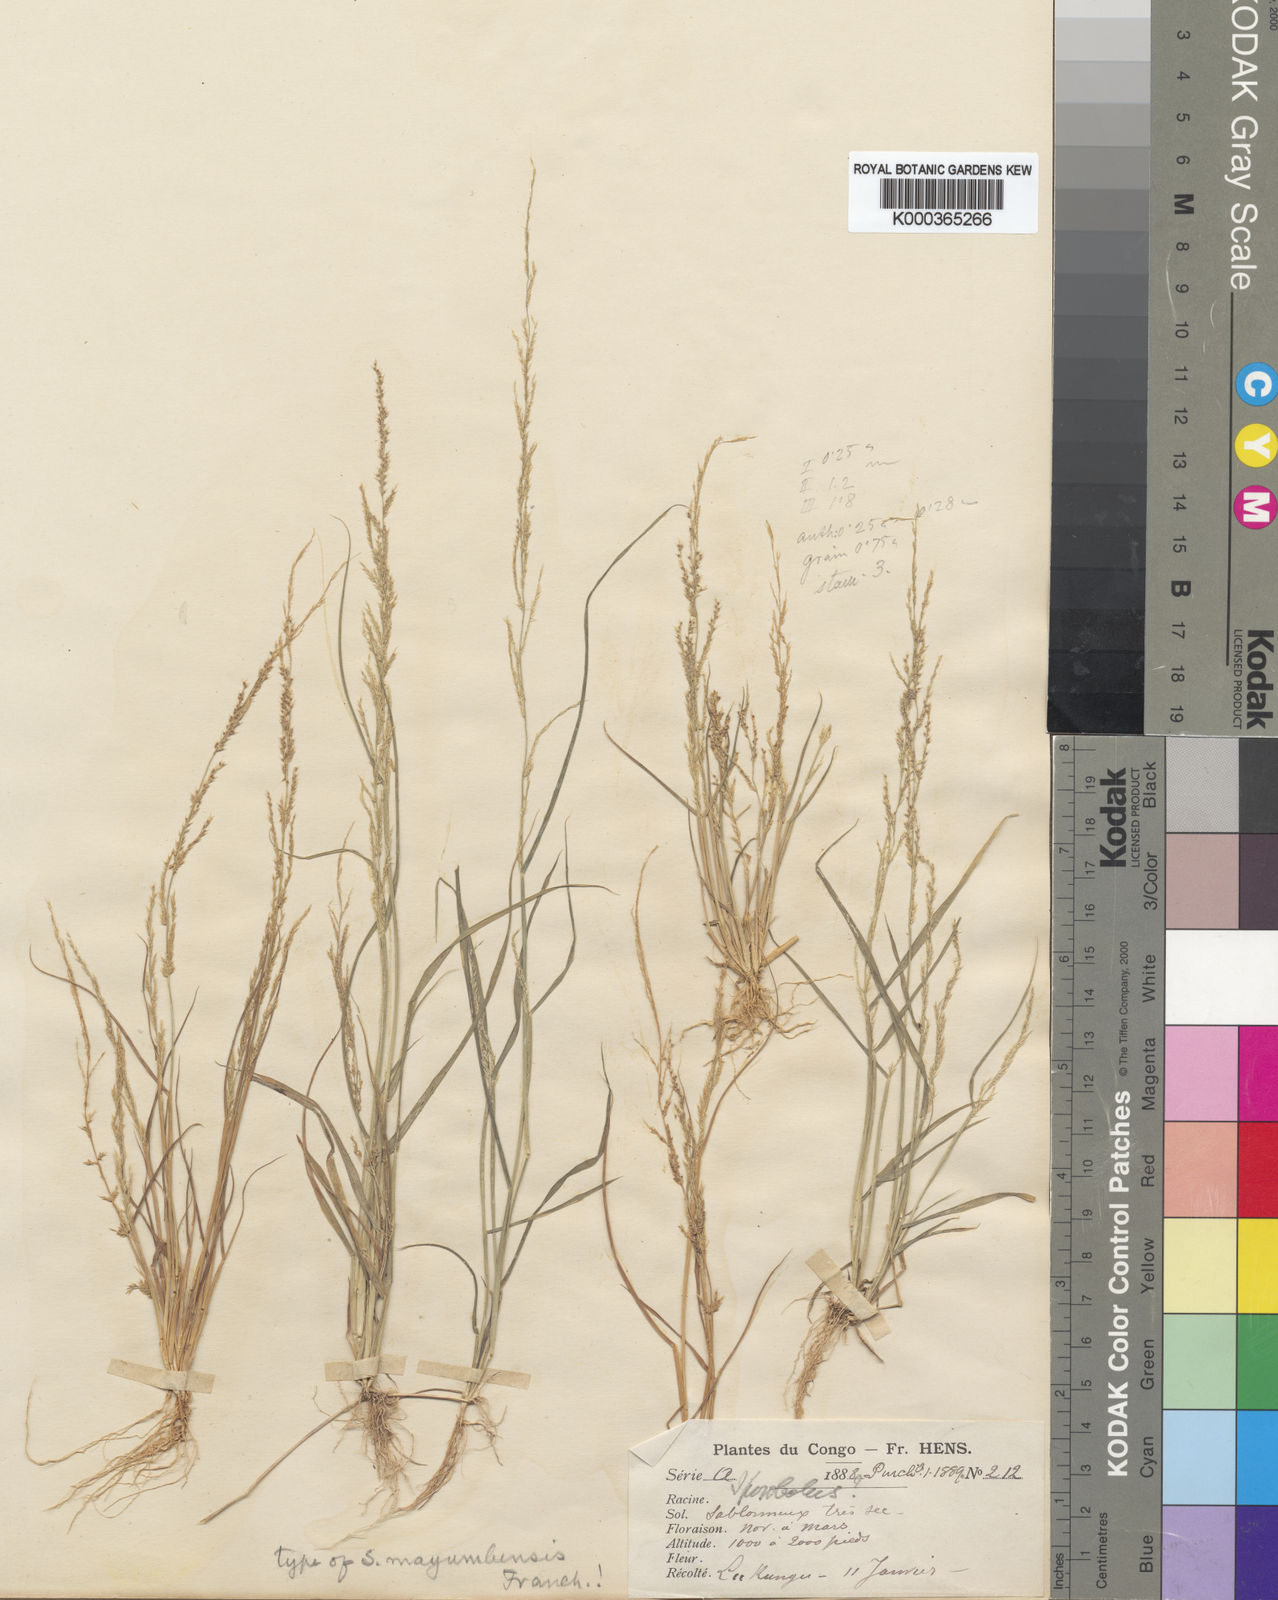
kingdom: Plantae
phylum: Tracheophyta
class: Liliopsida
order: Poales
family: Poaceae
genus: Sporobolus
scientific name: Sporobolus molleri
